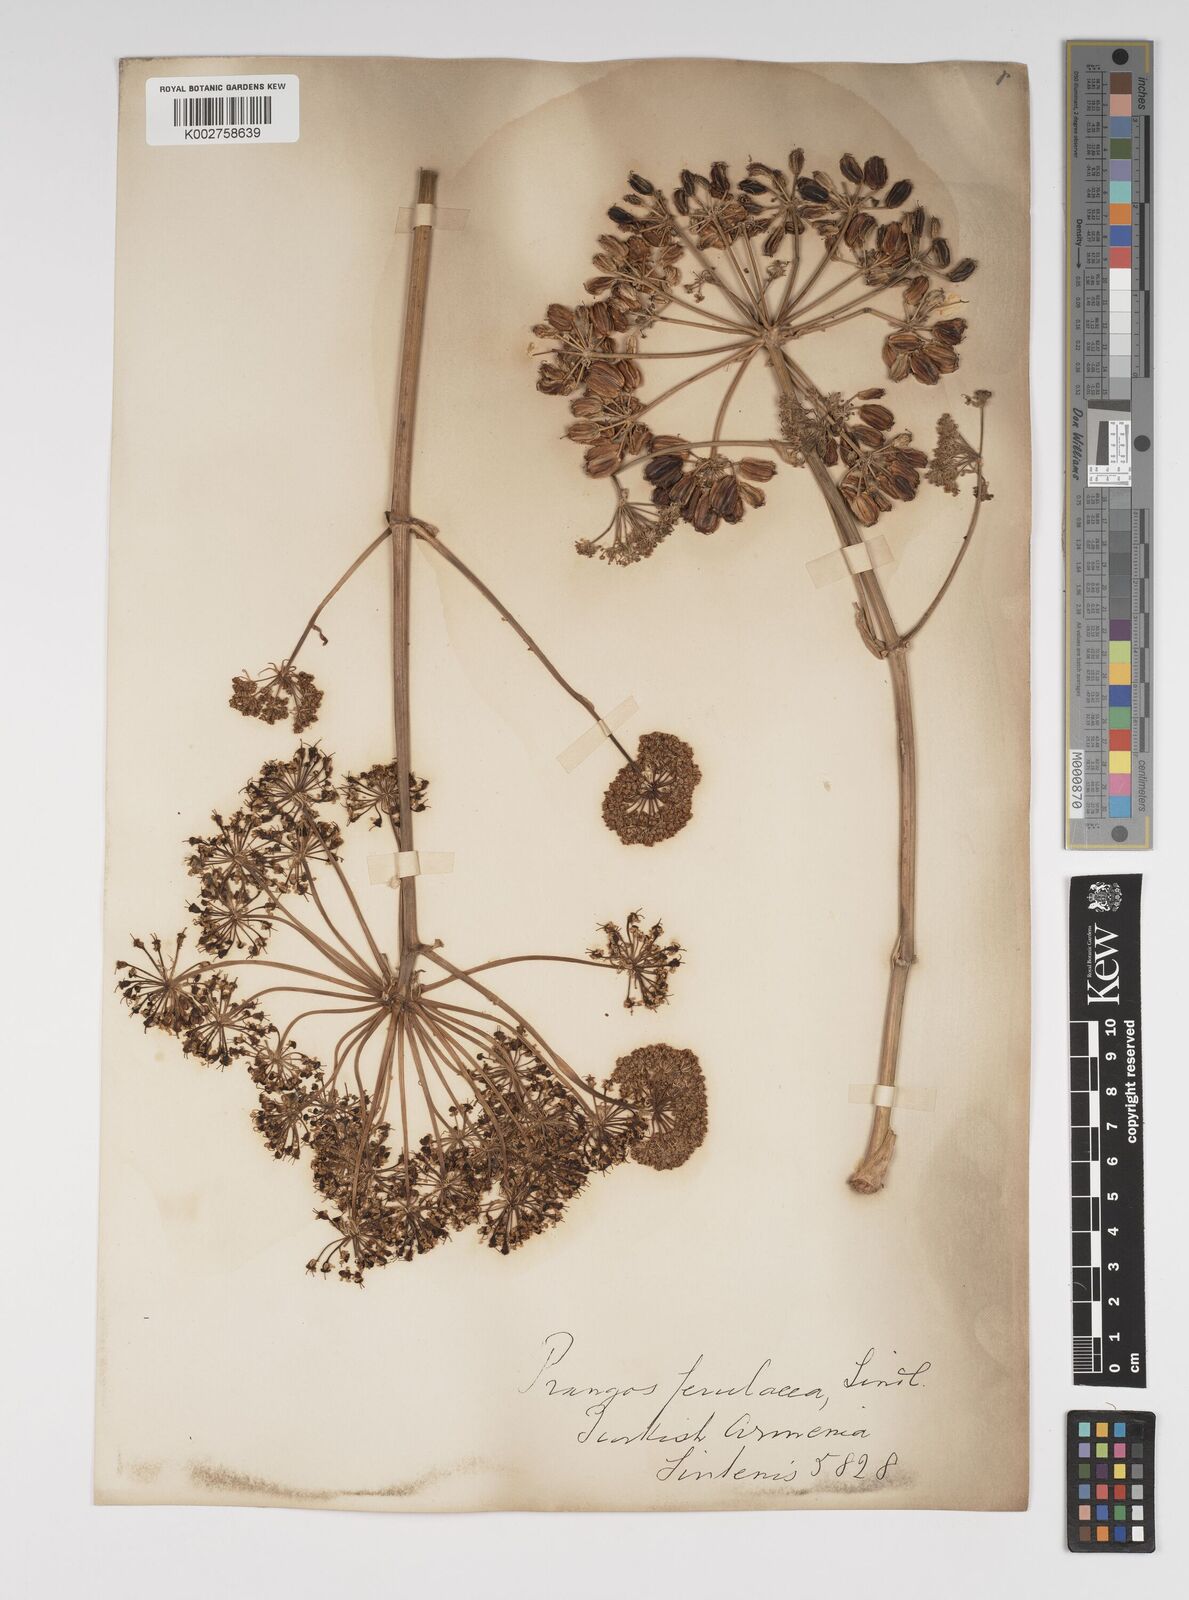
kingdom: Plantae
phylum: Tracheophyta
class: Magnoliopsida
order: Apiales
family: Apiaceae
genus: Prangos
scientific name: Prangos ferulacea
